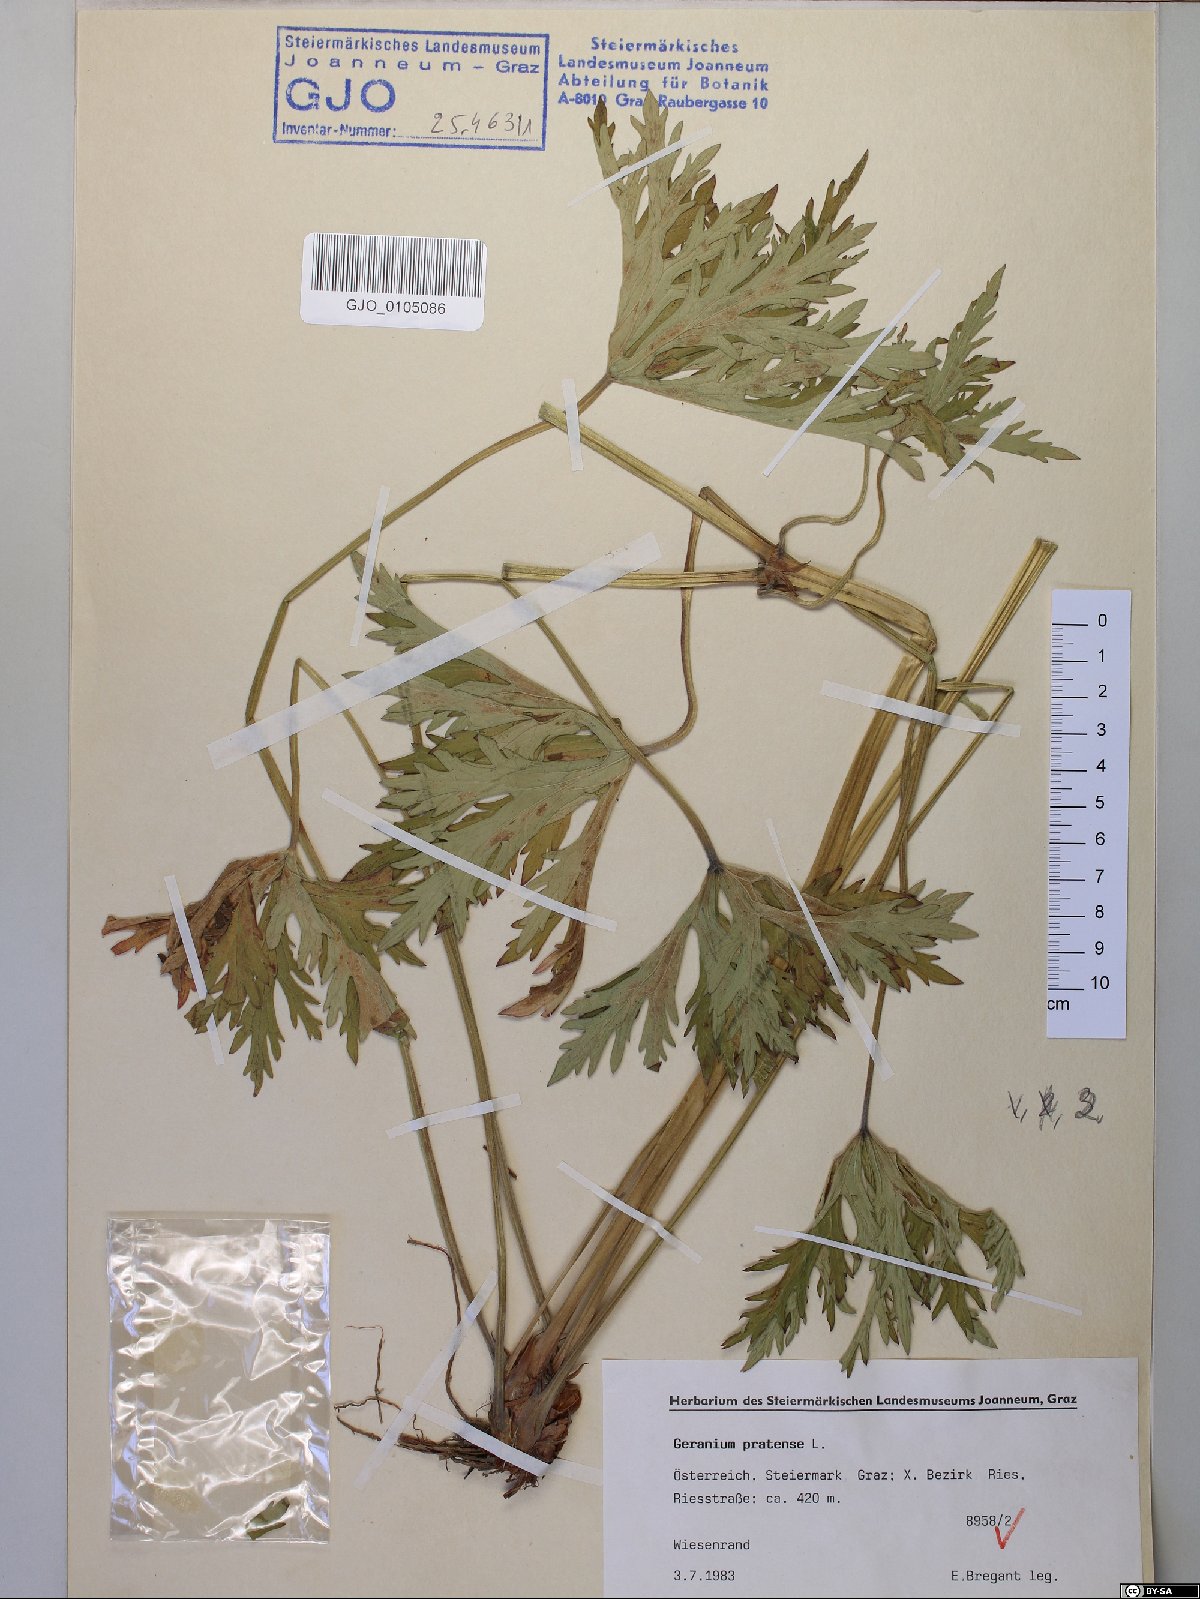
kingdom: Plantae
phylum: Tracheophyta
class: Magnoliopsida
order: Geraniales
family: Geraniaceae
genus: Geranium
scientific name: Geranium pratense
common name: Meadow crane's-bill
